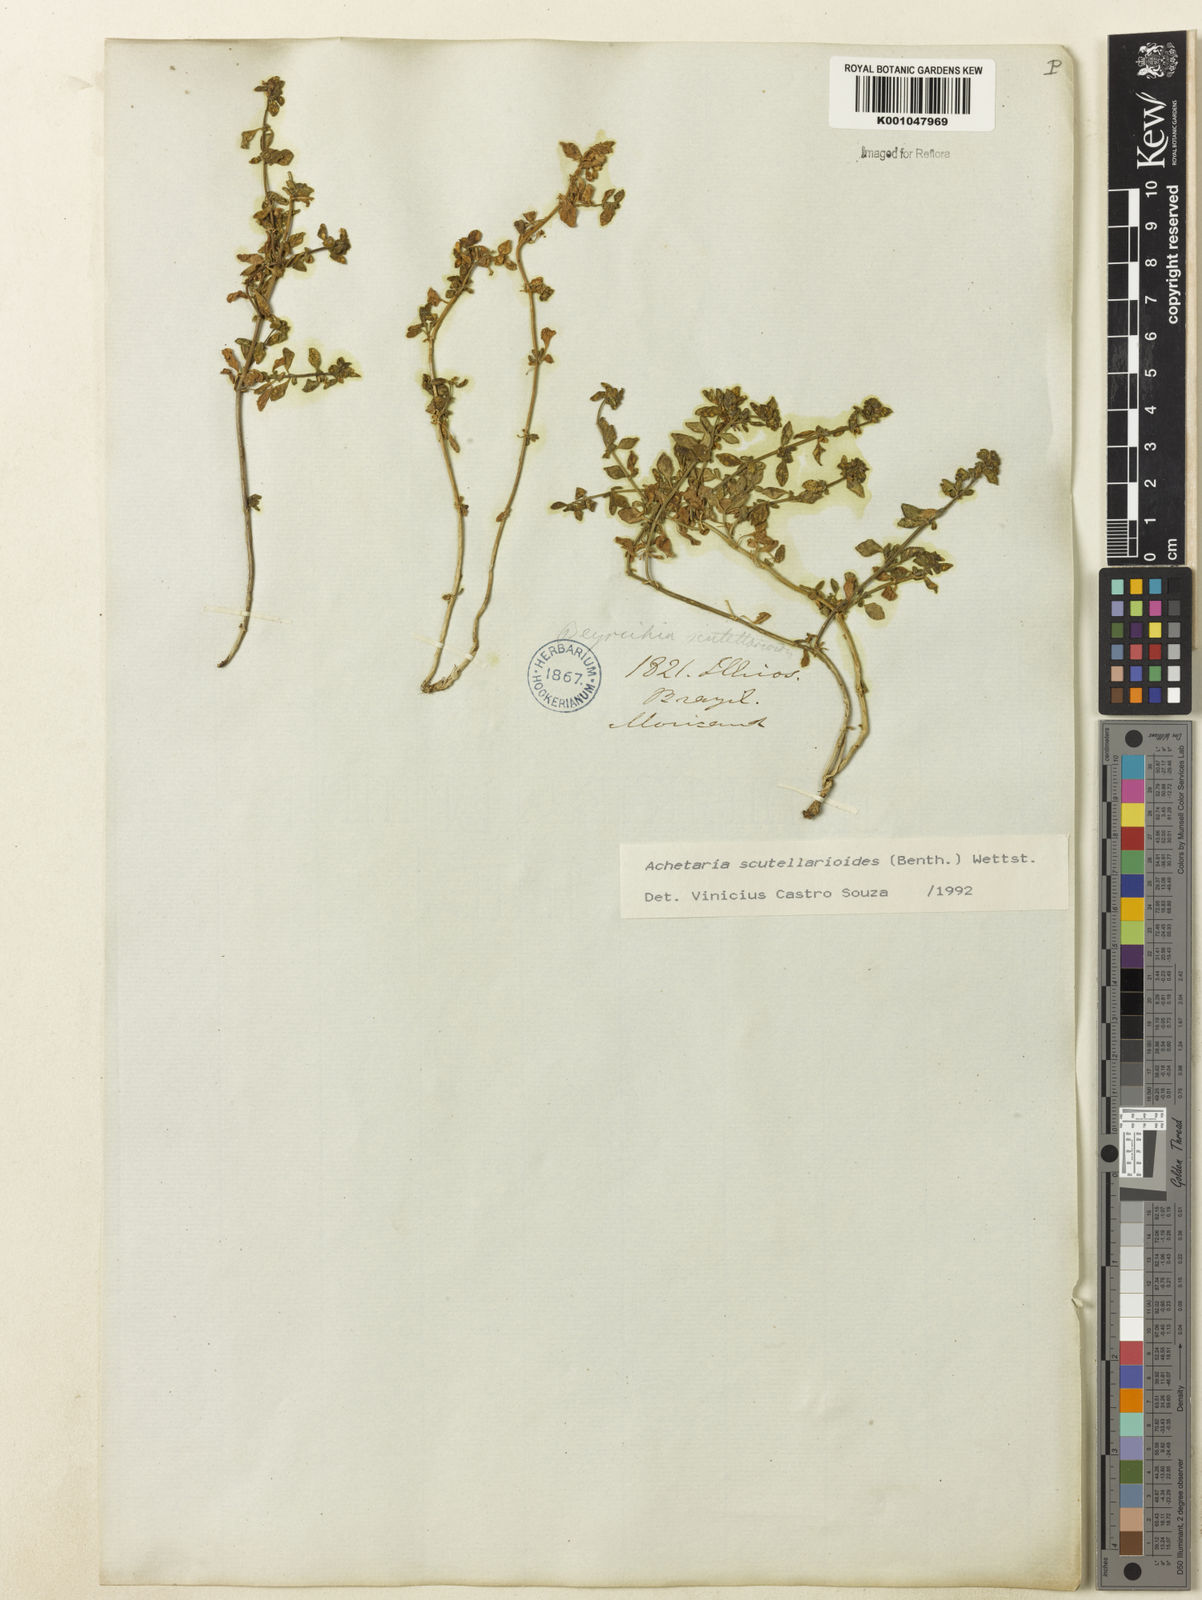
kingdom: Plantae
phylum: Tracheophyta
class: Magnoliopsida
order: Lamiales
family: Plantaginaceae
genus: Matourea
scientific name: Matourea scutellarioides
